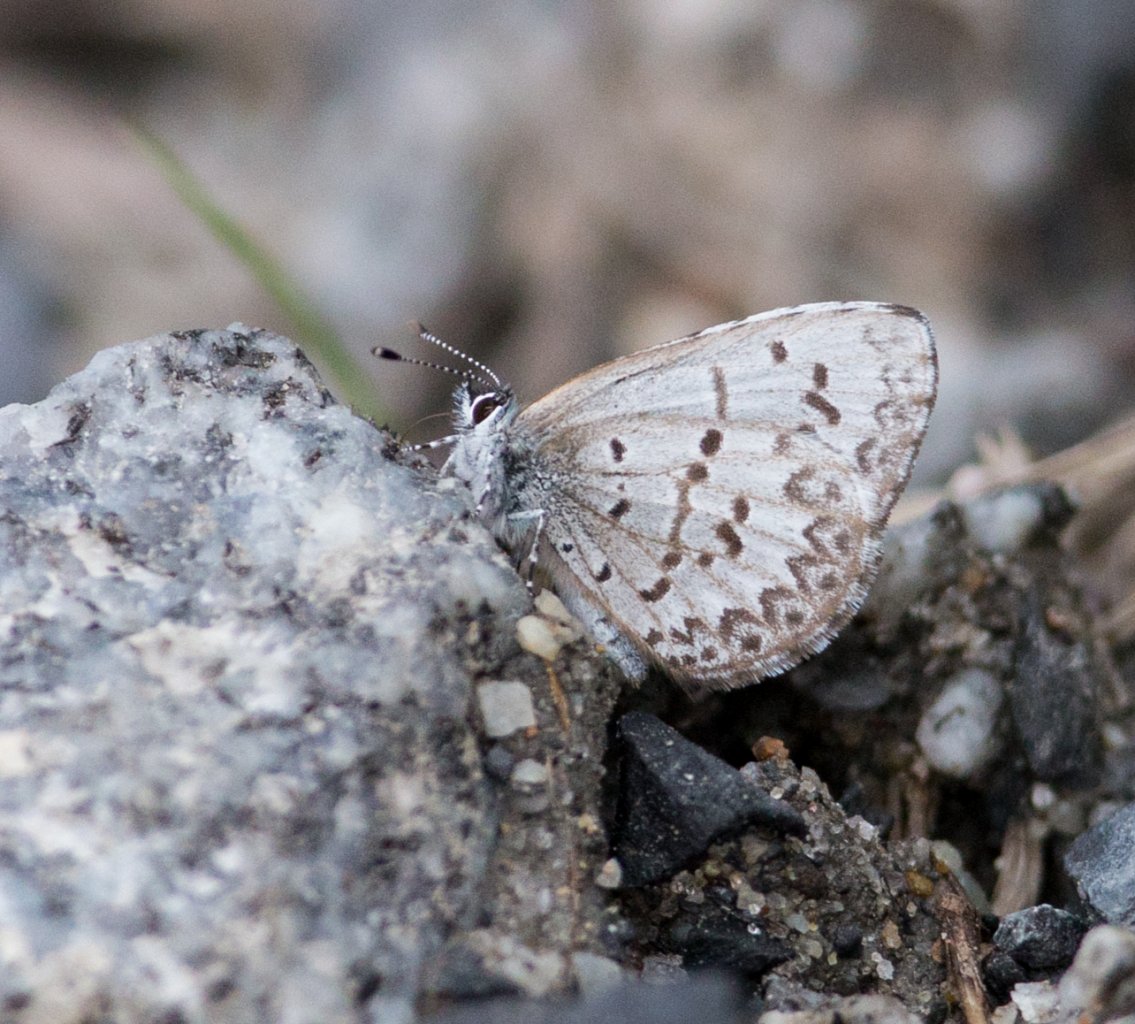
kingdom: Animalia
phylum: Arthropoda
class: Insecta
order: Lepidoptera
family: Lycaenidae
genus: Celastrina
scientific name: Celastrina lucia
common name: Northern Spring Azure
